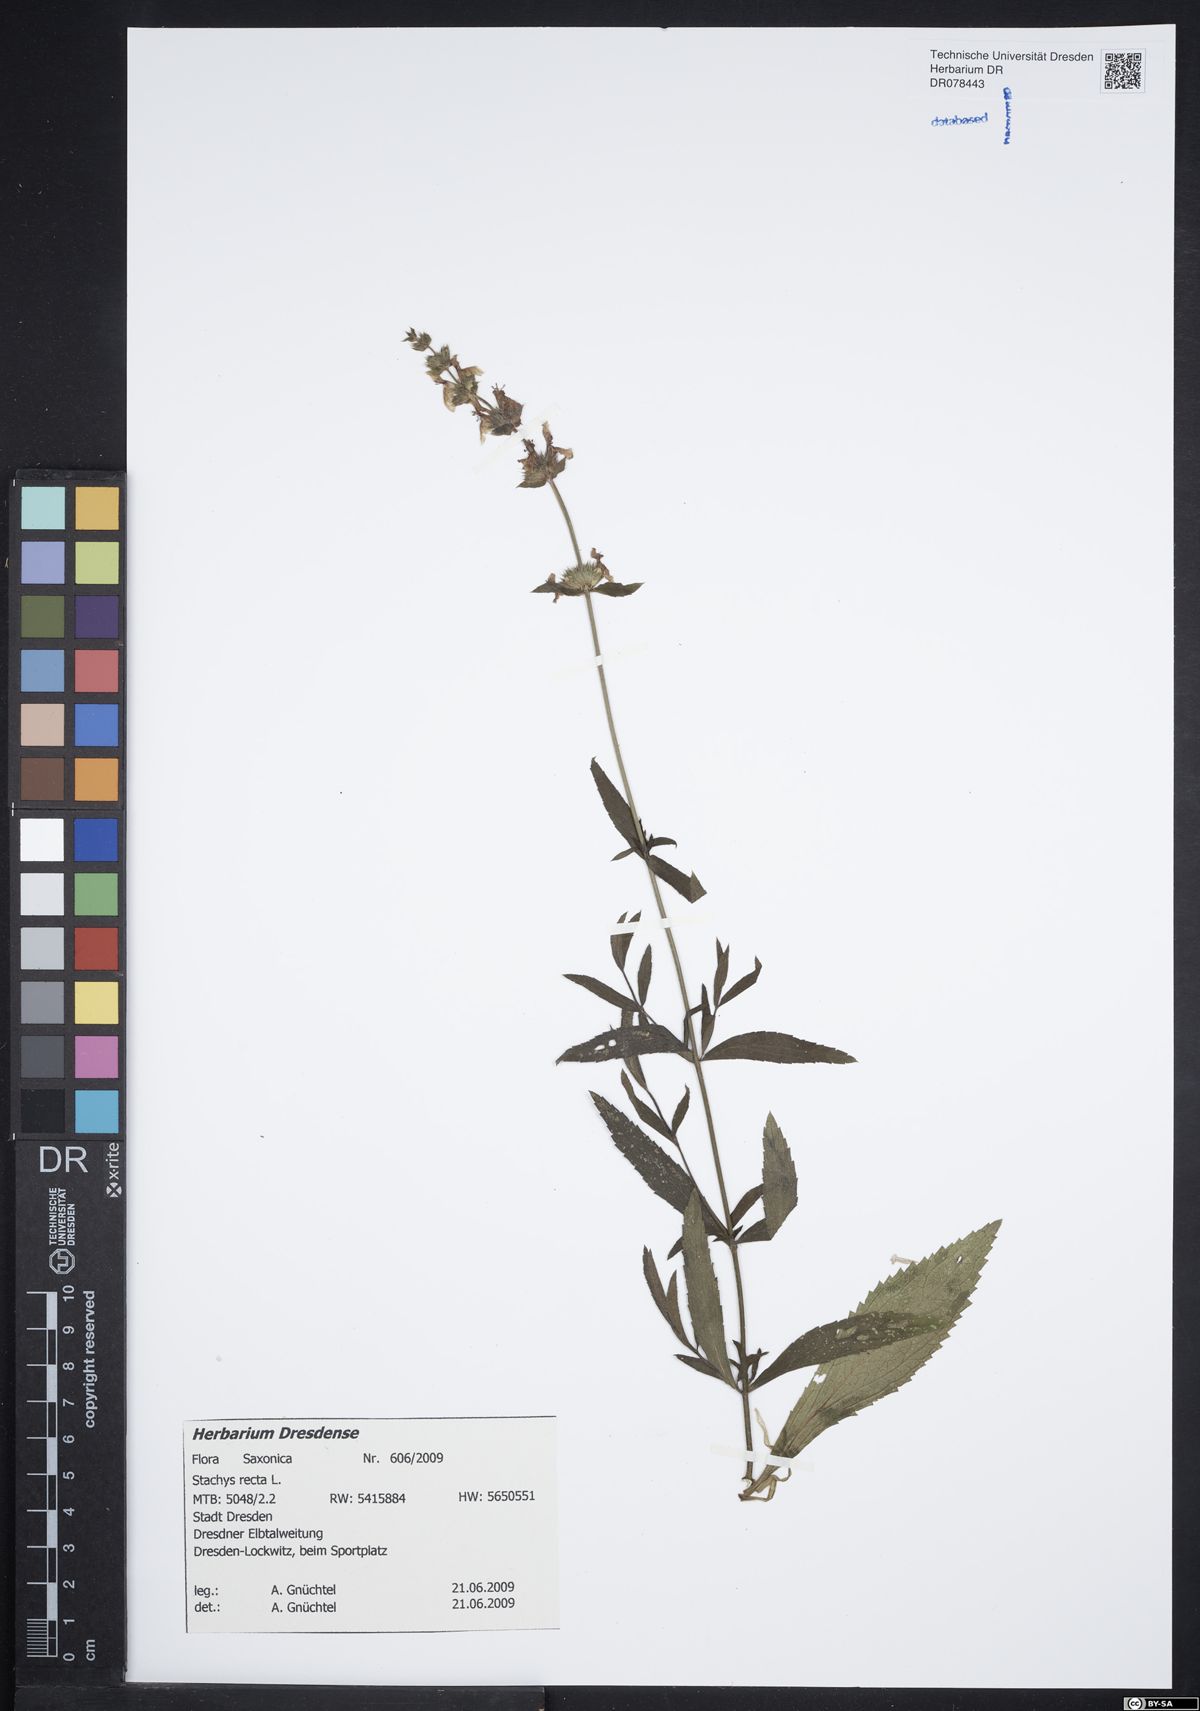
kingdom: Plantae
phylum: Tracheophyta
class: Magnoliopsida
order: Lamiales
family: Lamiaceae
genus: Stachys
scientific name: Stachys recta
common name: Perennial yellow-woundwort
